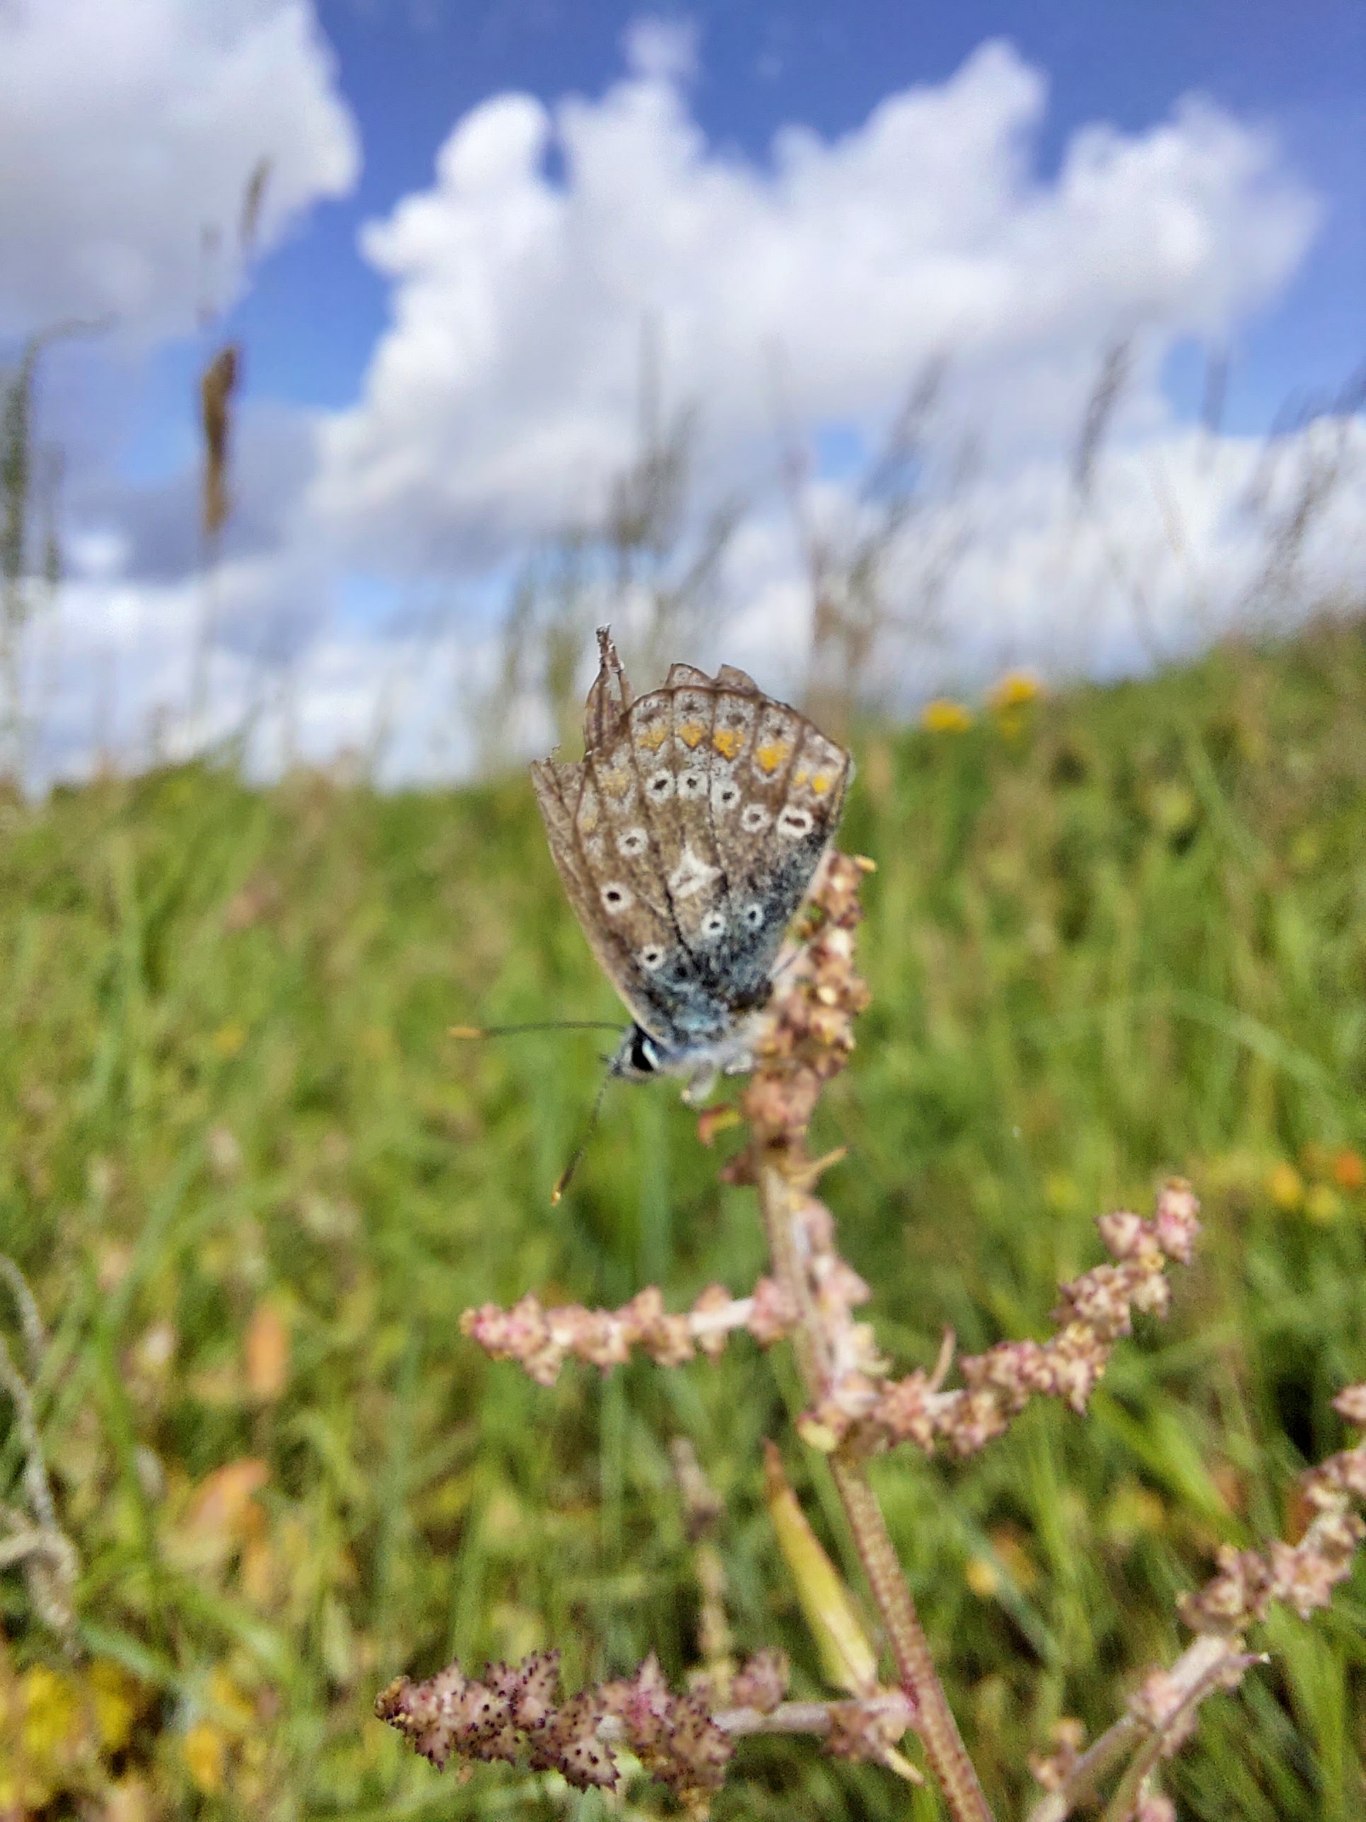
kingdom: Animalia
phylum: Arthropoda
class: Insecta
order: Lepidoptera
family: Lycaenidae
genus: Polyommatus
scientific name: Polyommatus icarus
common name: Almindelig blåfugl
